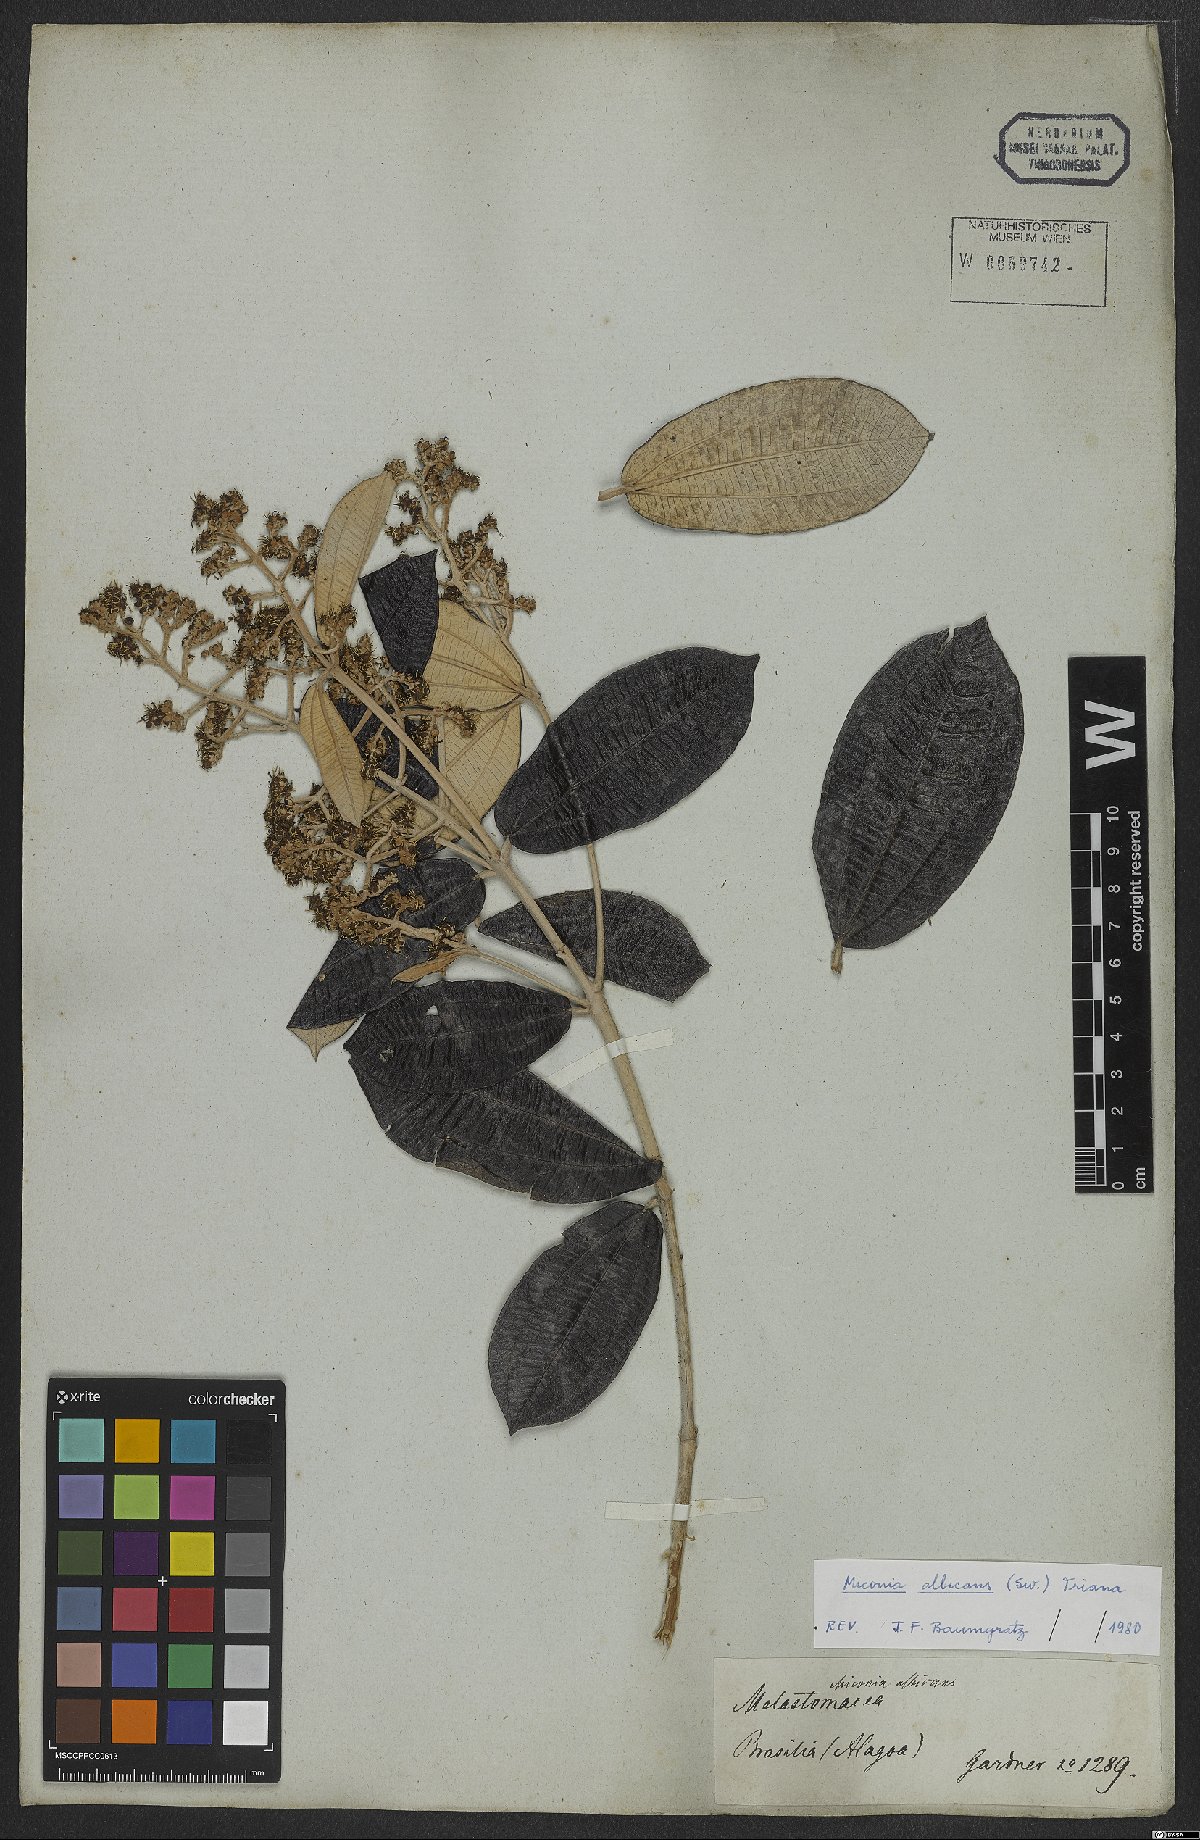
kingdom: Plantae
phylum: Tracheophyta
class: Magnoliopsida
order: Myrtales
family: Melastomataceae
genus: Miconia
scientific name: Miconia albicans
